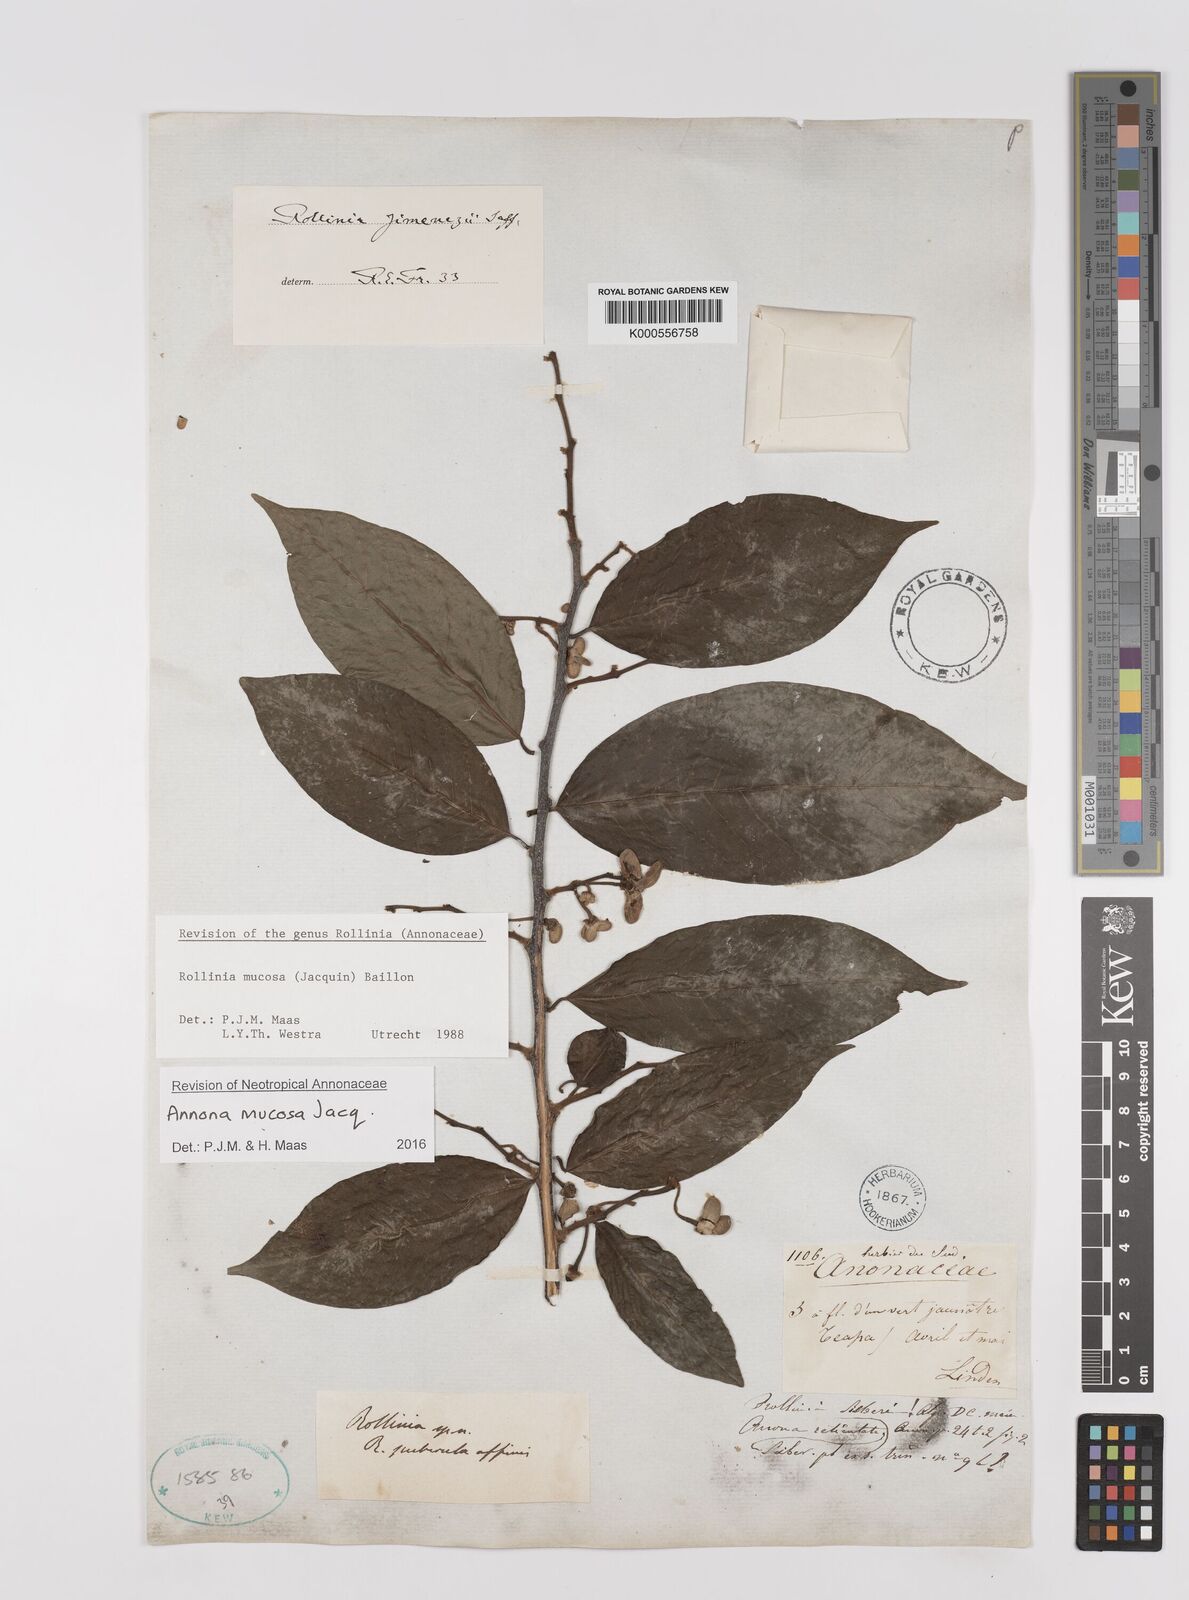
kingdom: Plantae
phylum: Tracheophyta
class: Magnoliopsida
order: Magnoliales
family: Annonaceae
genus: Annona
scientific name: Annona mucosa
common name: Sugar apple
